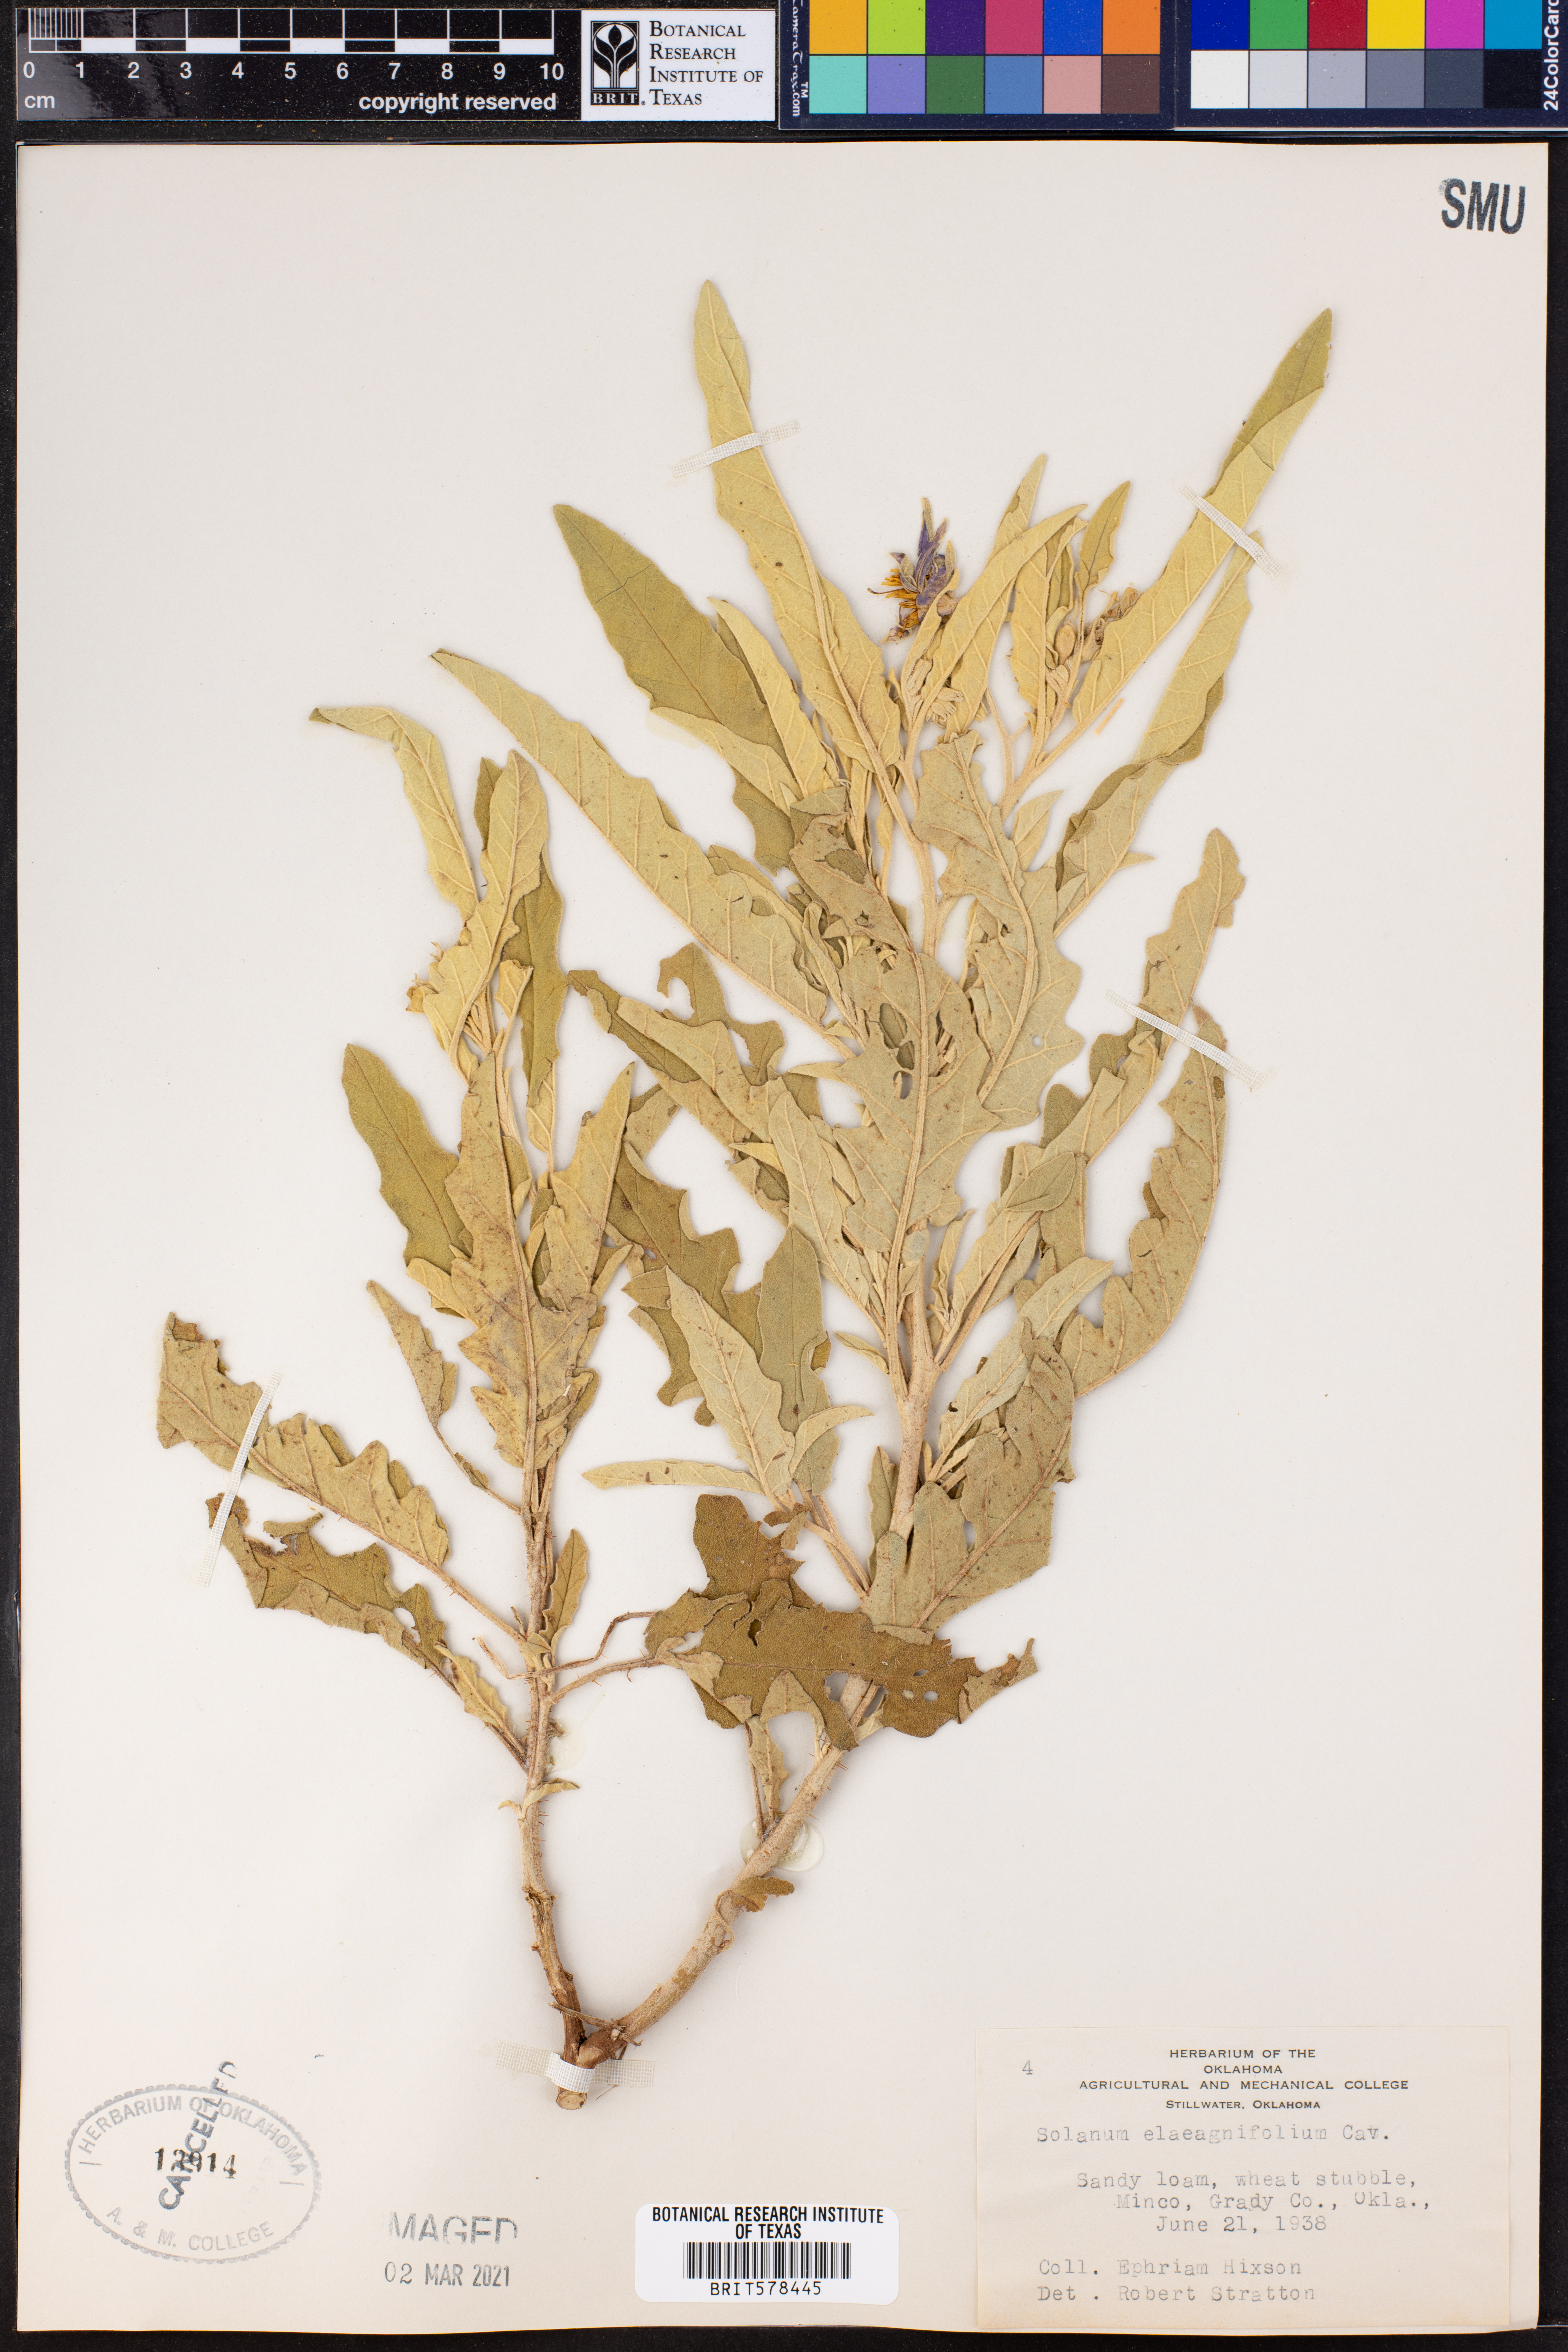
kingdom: Plantae
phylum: Tracheophyta
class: Magnoliopsida
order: Solanales
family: Solanaceae
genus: Solanum
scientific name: Solanum elaeagnifolium
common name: Silverleaf nightshade
